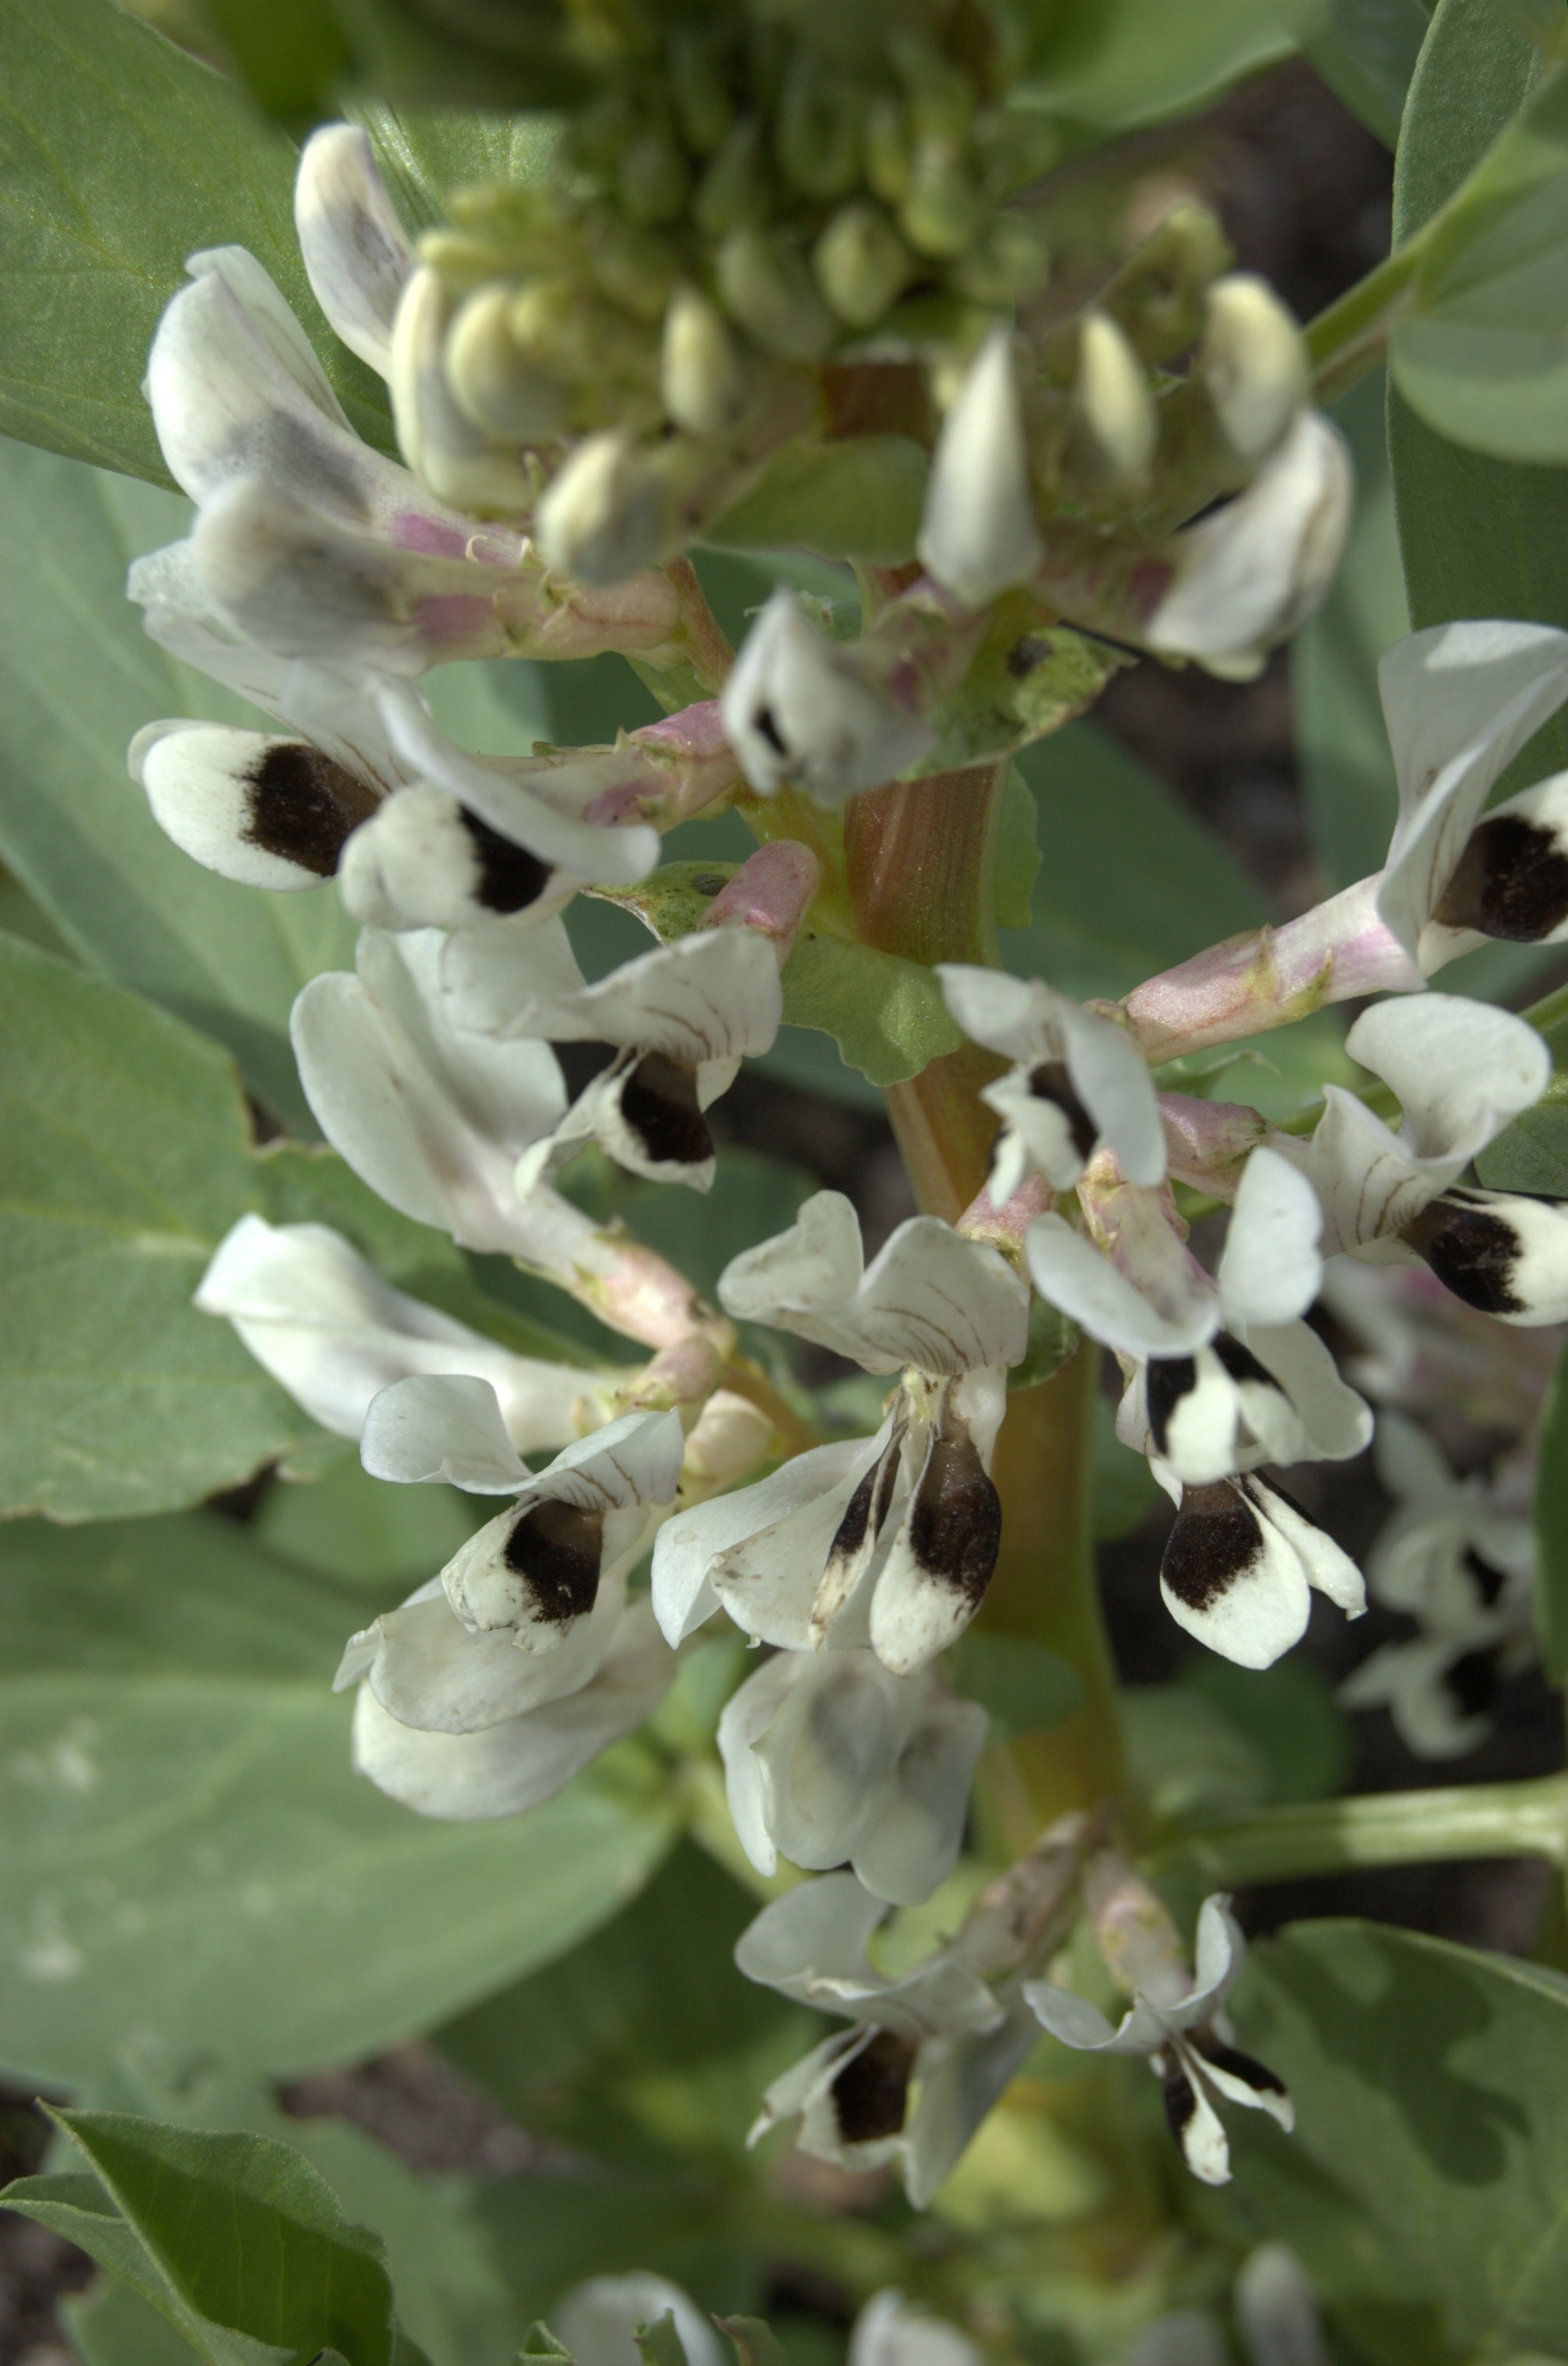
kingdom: Plantae
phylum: Tracheophyta
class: Magnoliopsida
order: Fabales
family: Fabaceae
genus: Vicia
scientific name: Vicia faba
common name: Broad bean
